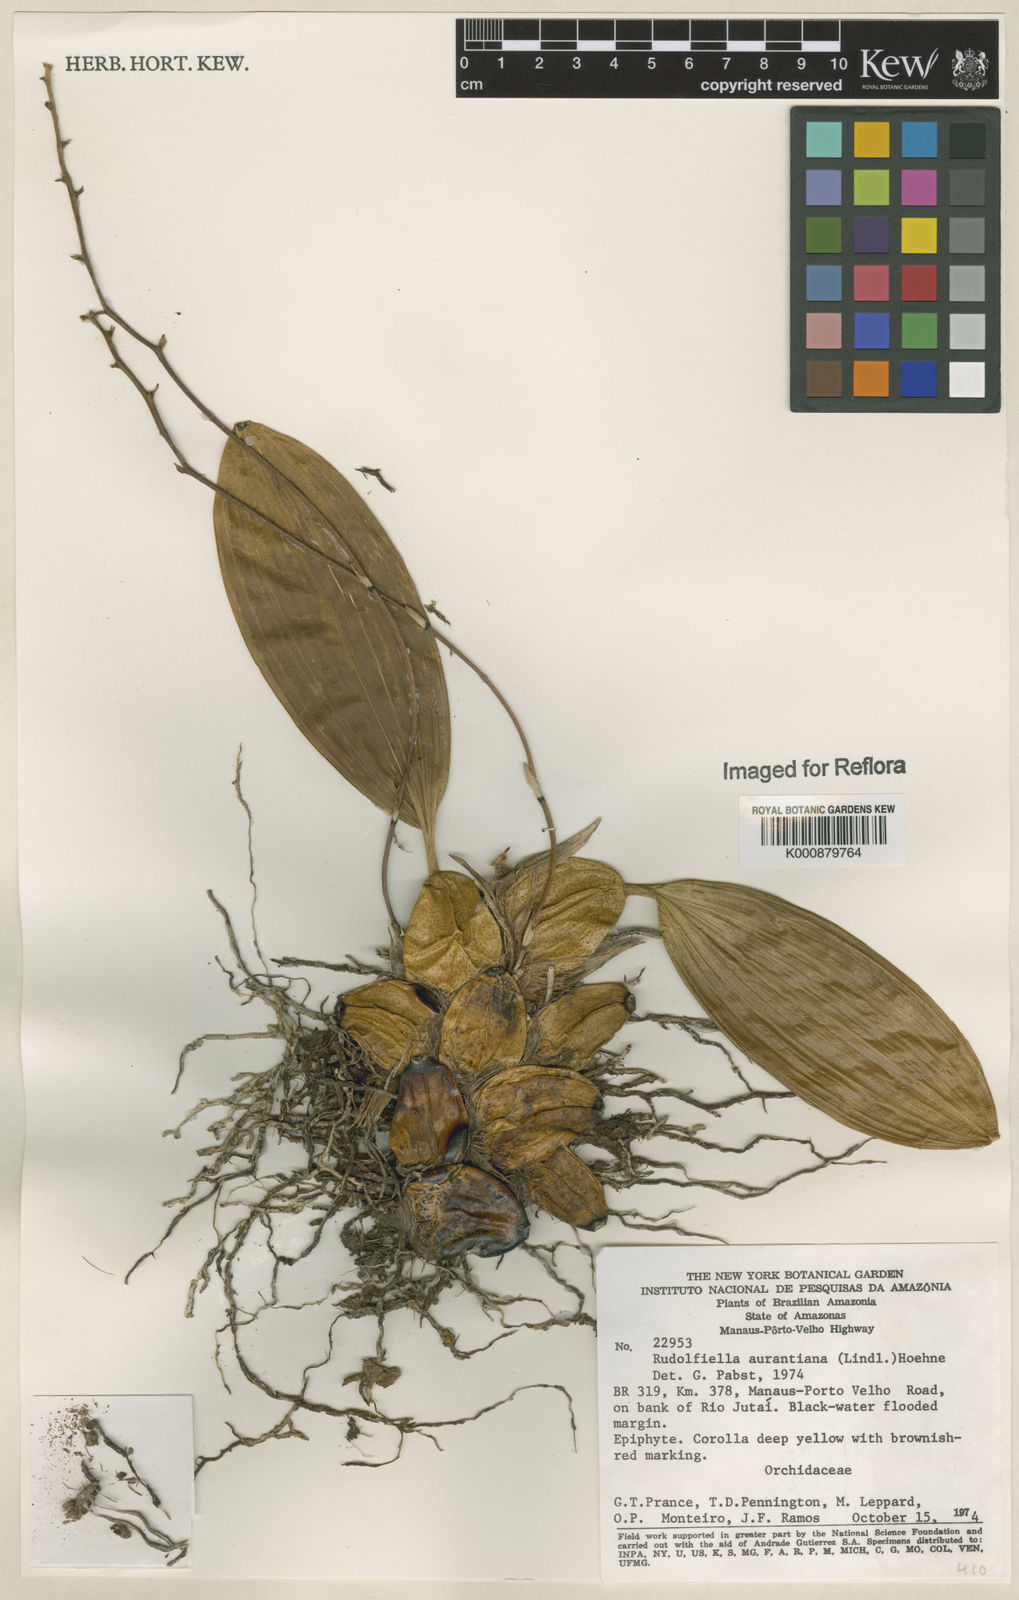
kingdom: Plantae
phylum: Tracheophyta
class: Liliopsida
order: Asparagales
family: Orchidaceae
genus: Rudolfiella
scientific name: Rudolfiella aurantiaca
